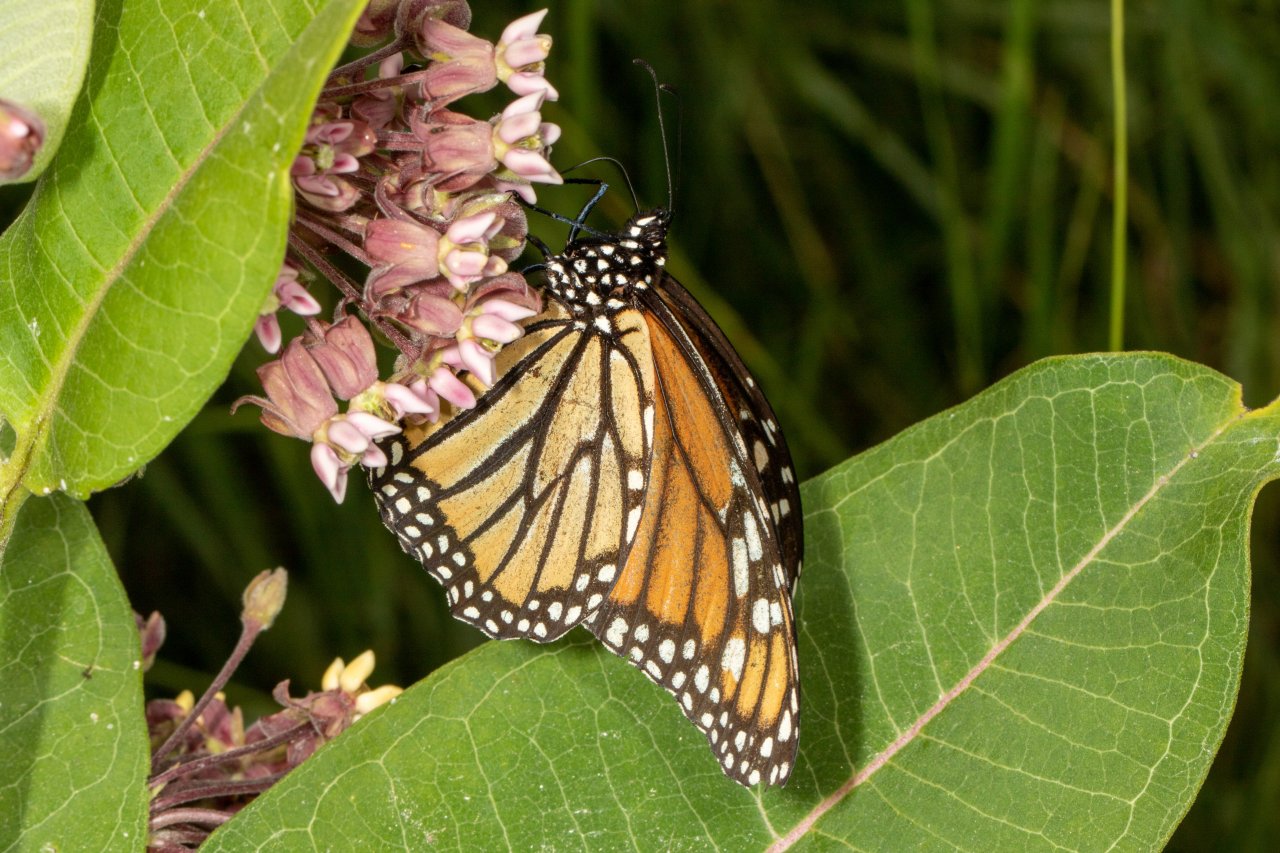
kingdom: Animalia
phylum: Arthropoda
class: Insecta
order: Lepidoptera
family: Nymphalidae
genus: Danaus
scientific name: Danaus plexippus
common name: Monarch
